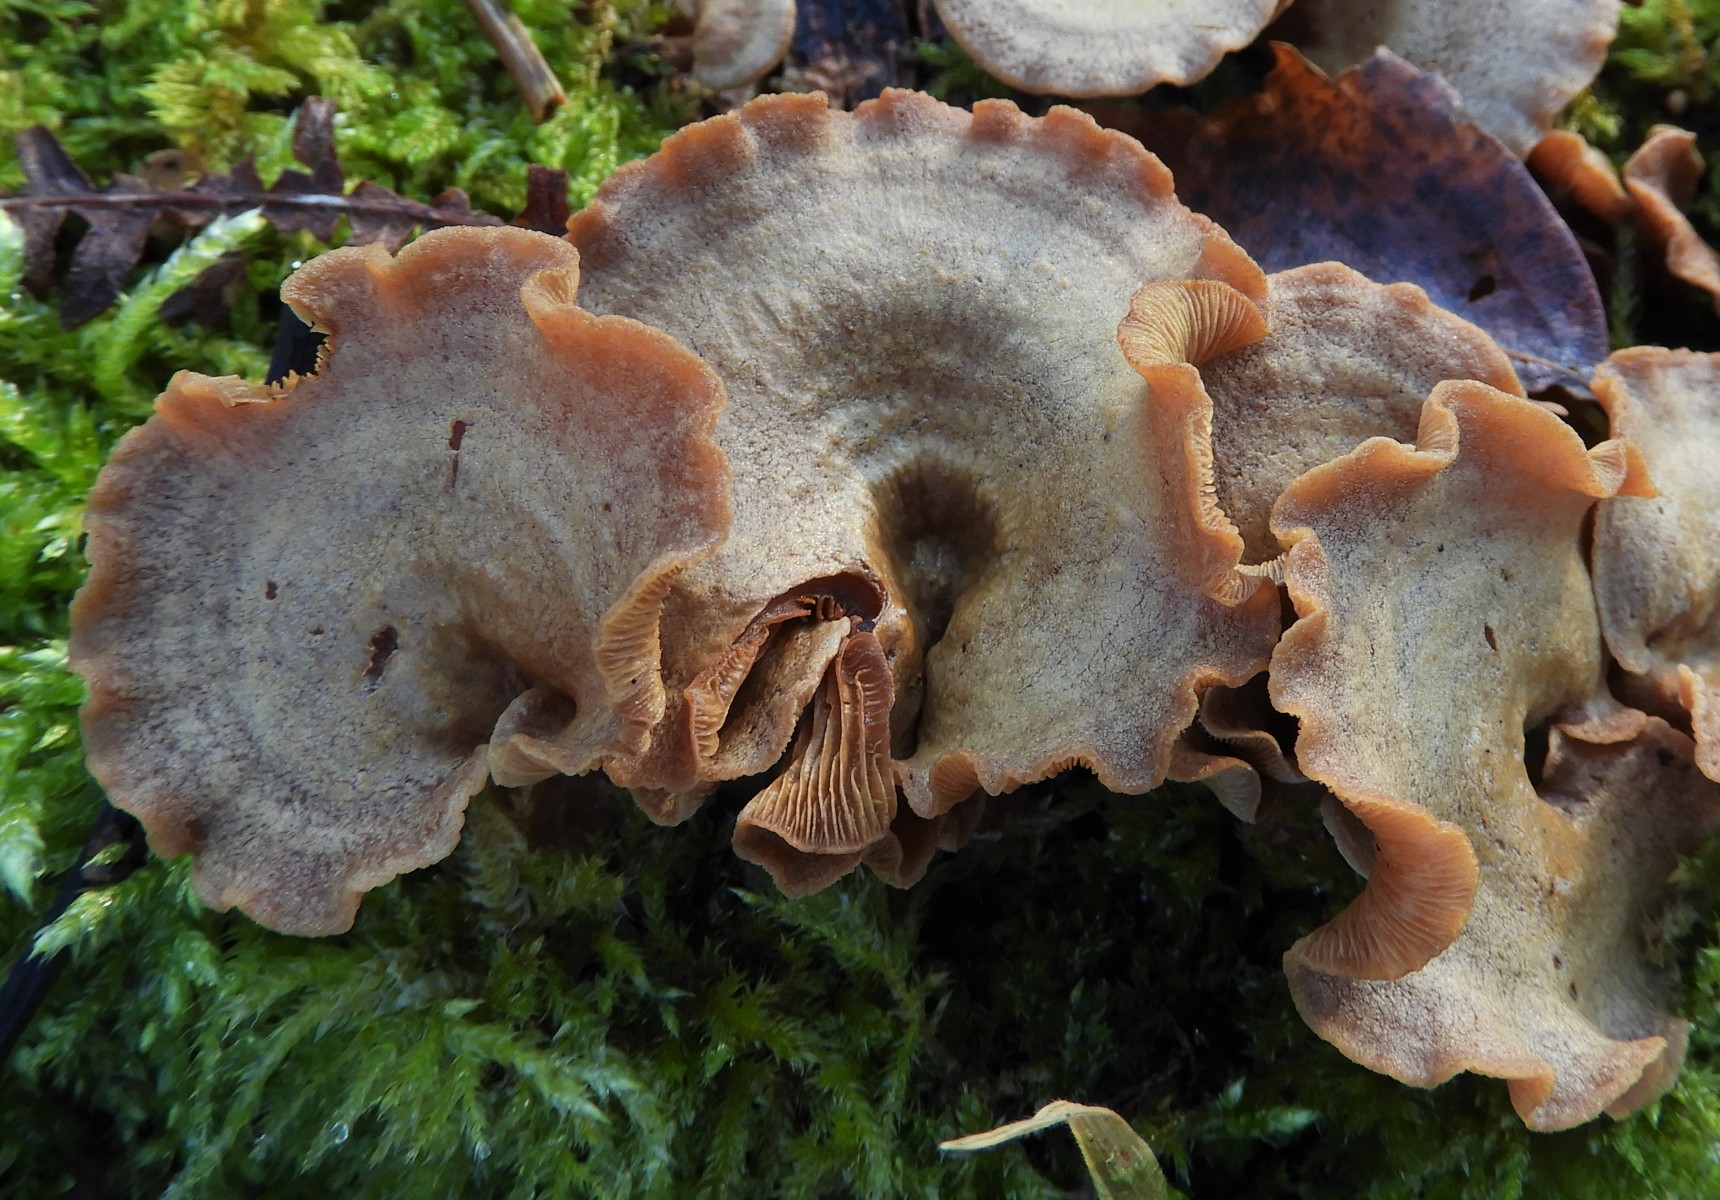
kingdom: Fungi
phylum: Basidiomycota
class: Agaricomycetes
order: Agaricales
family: Mycenaceae
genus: Panellus
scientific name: Panellus stipticus
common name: kliddet epaulethat
